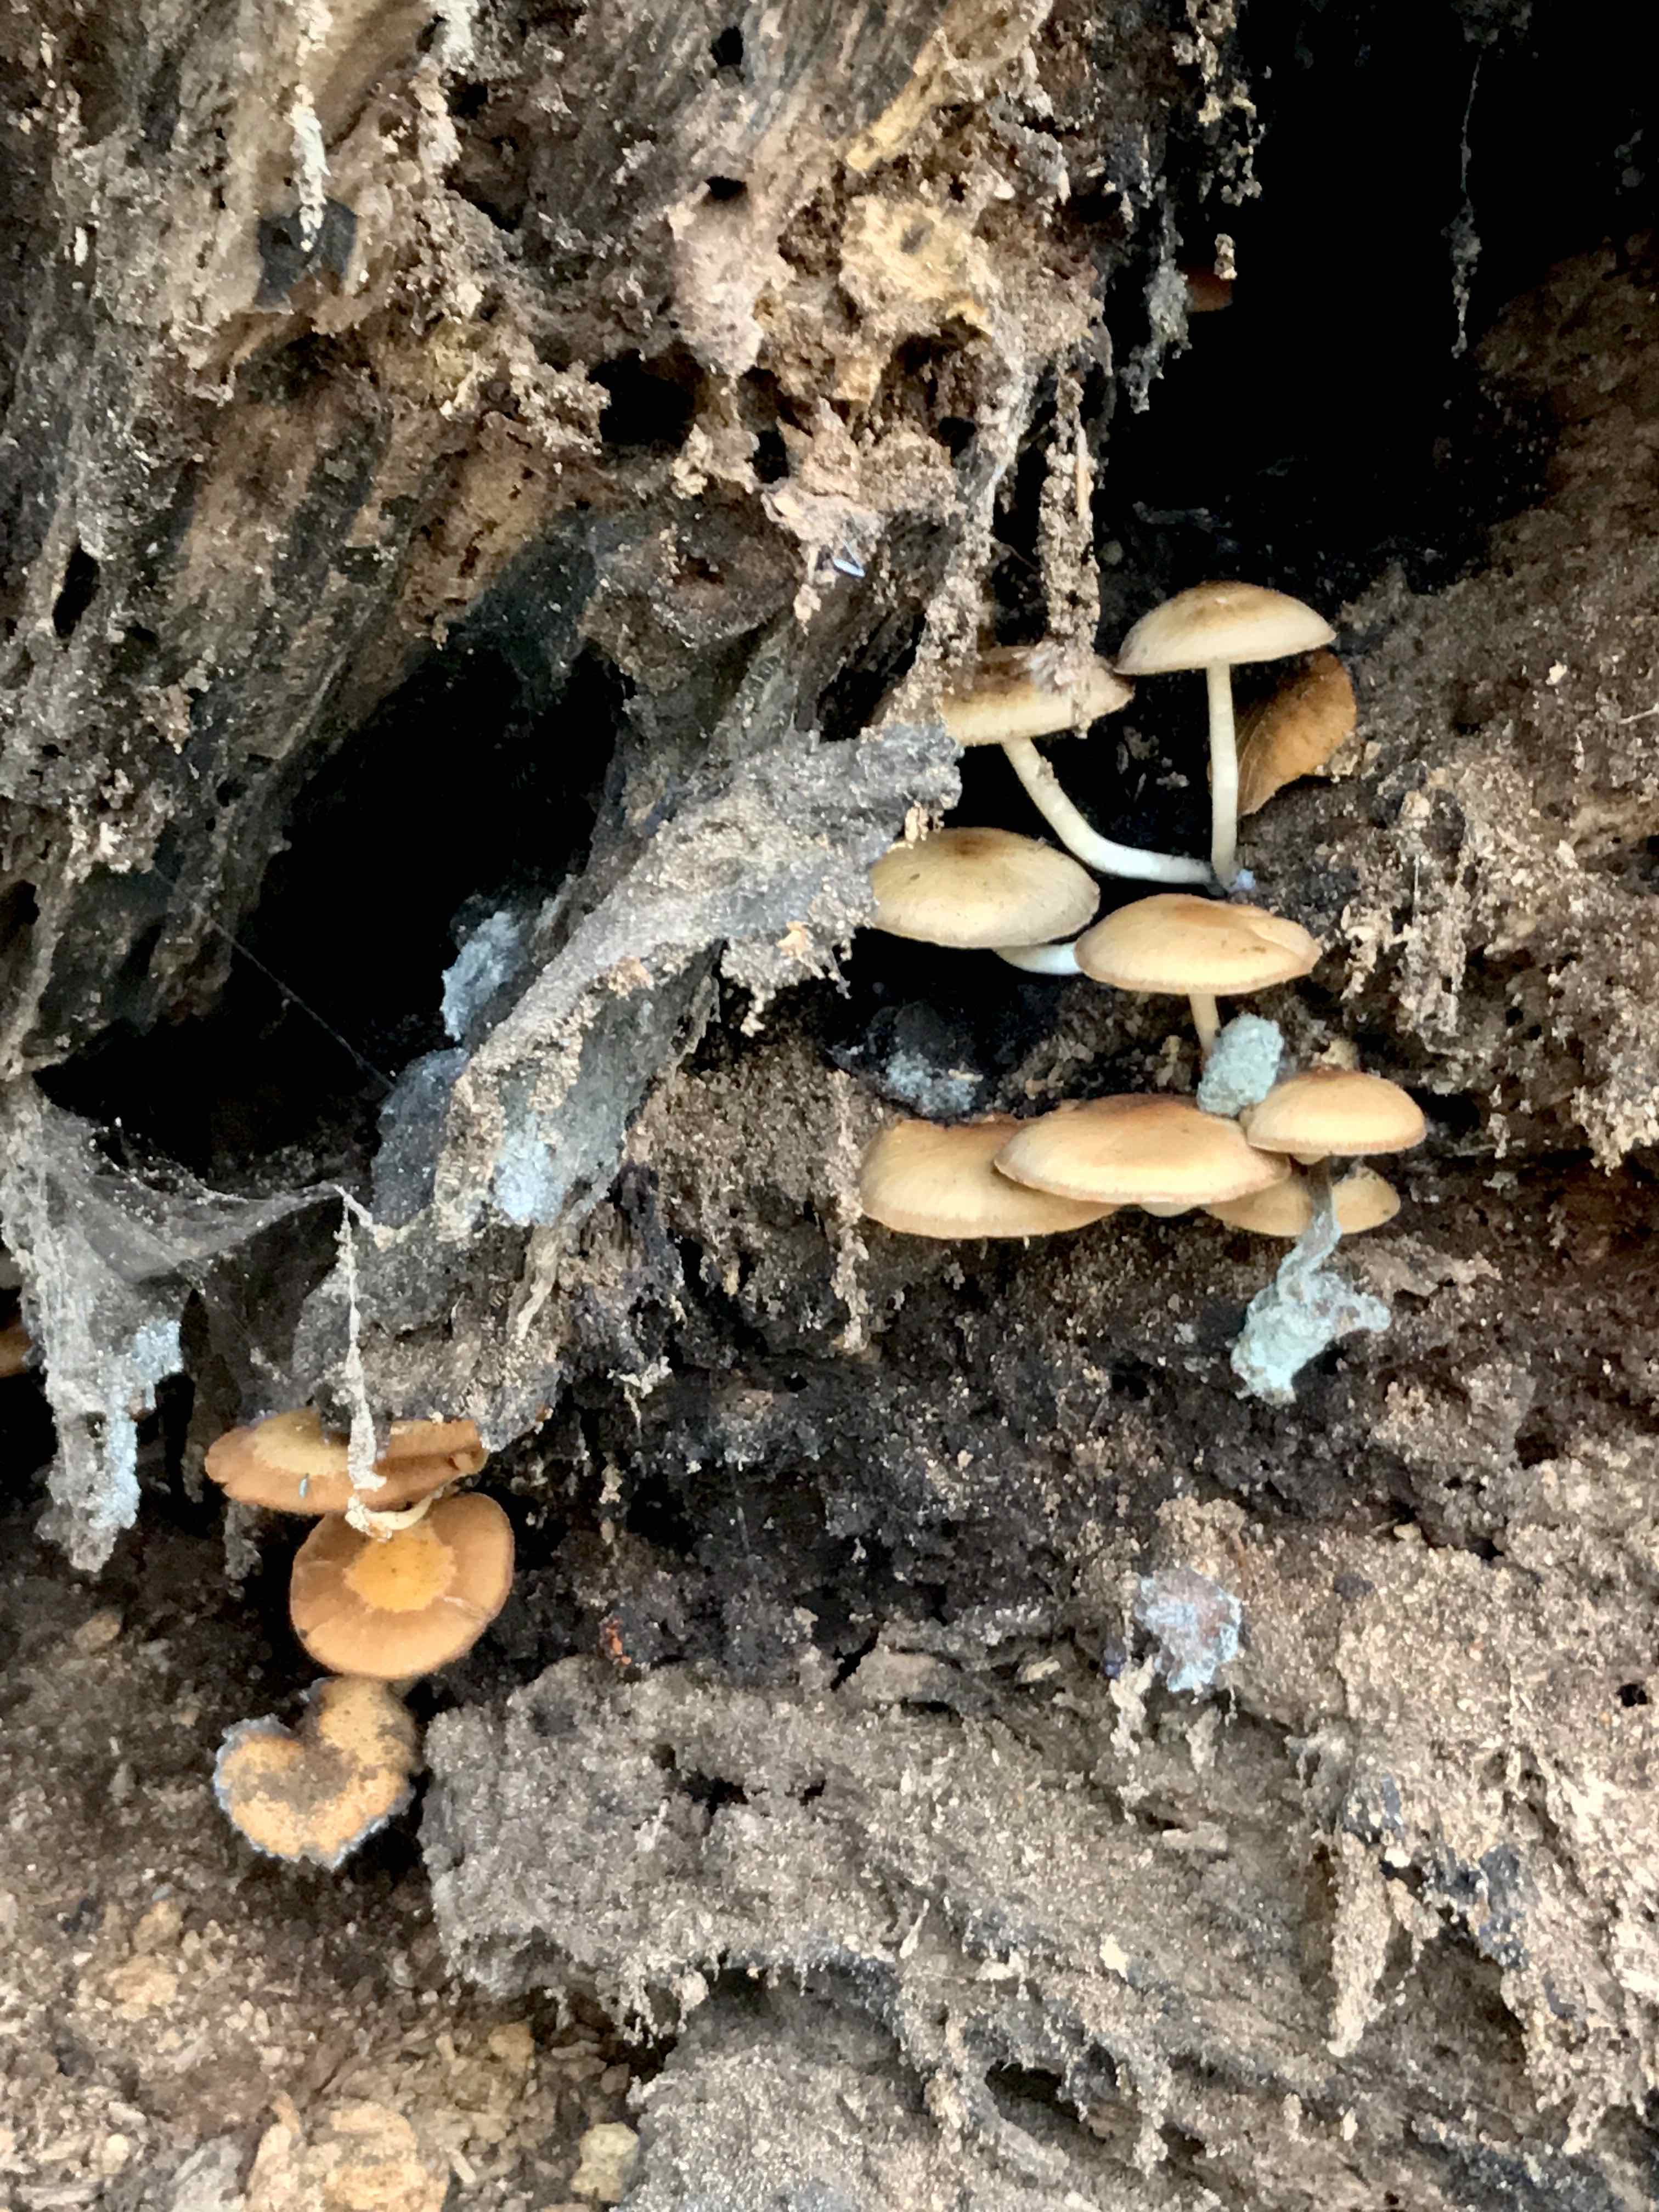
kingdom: Fungi
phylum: Basidiomycota
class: Agaricomycetes
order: Agaricales
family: Psathyrellaceae
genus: Psathyrella
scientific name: Psathyrella piluliformis
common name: lysstokket mørkhat
